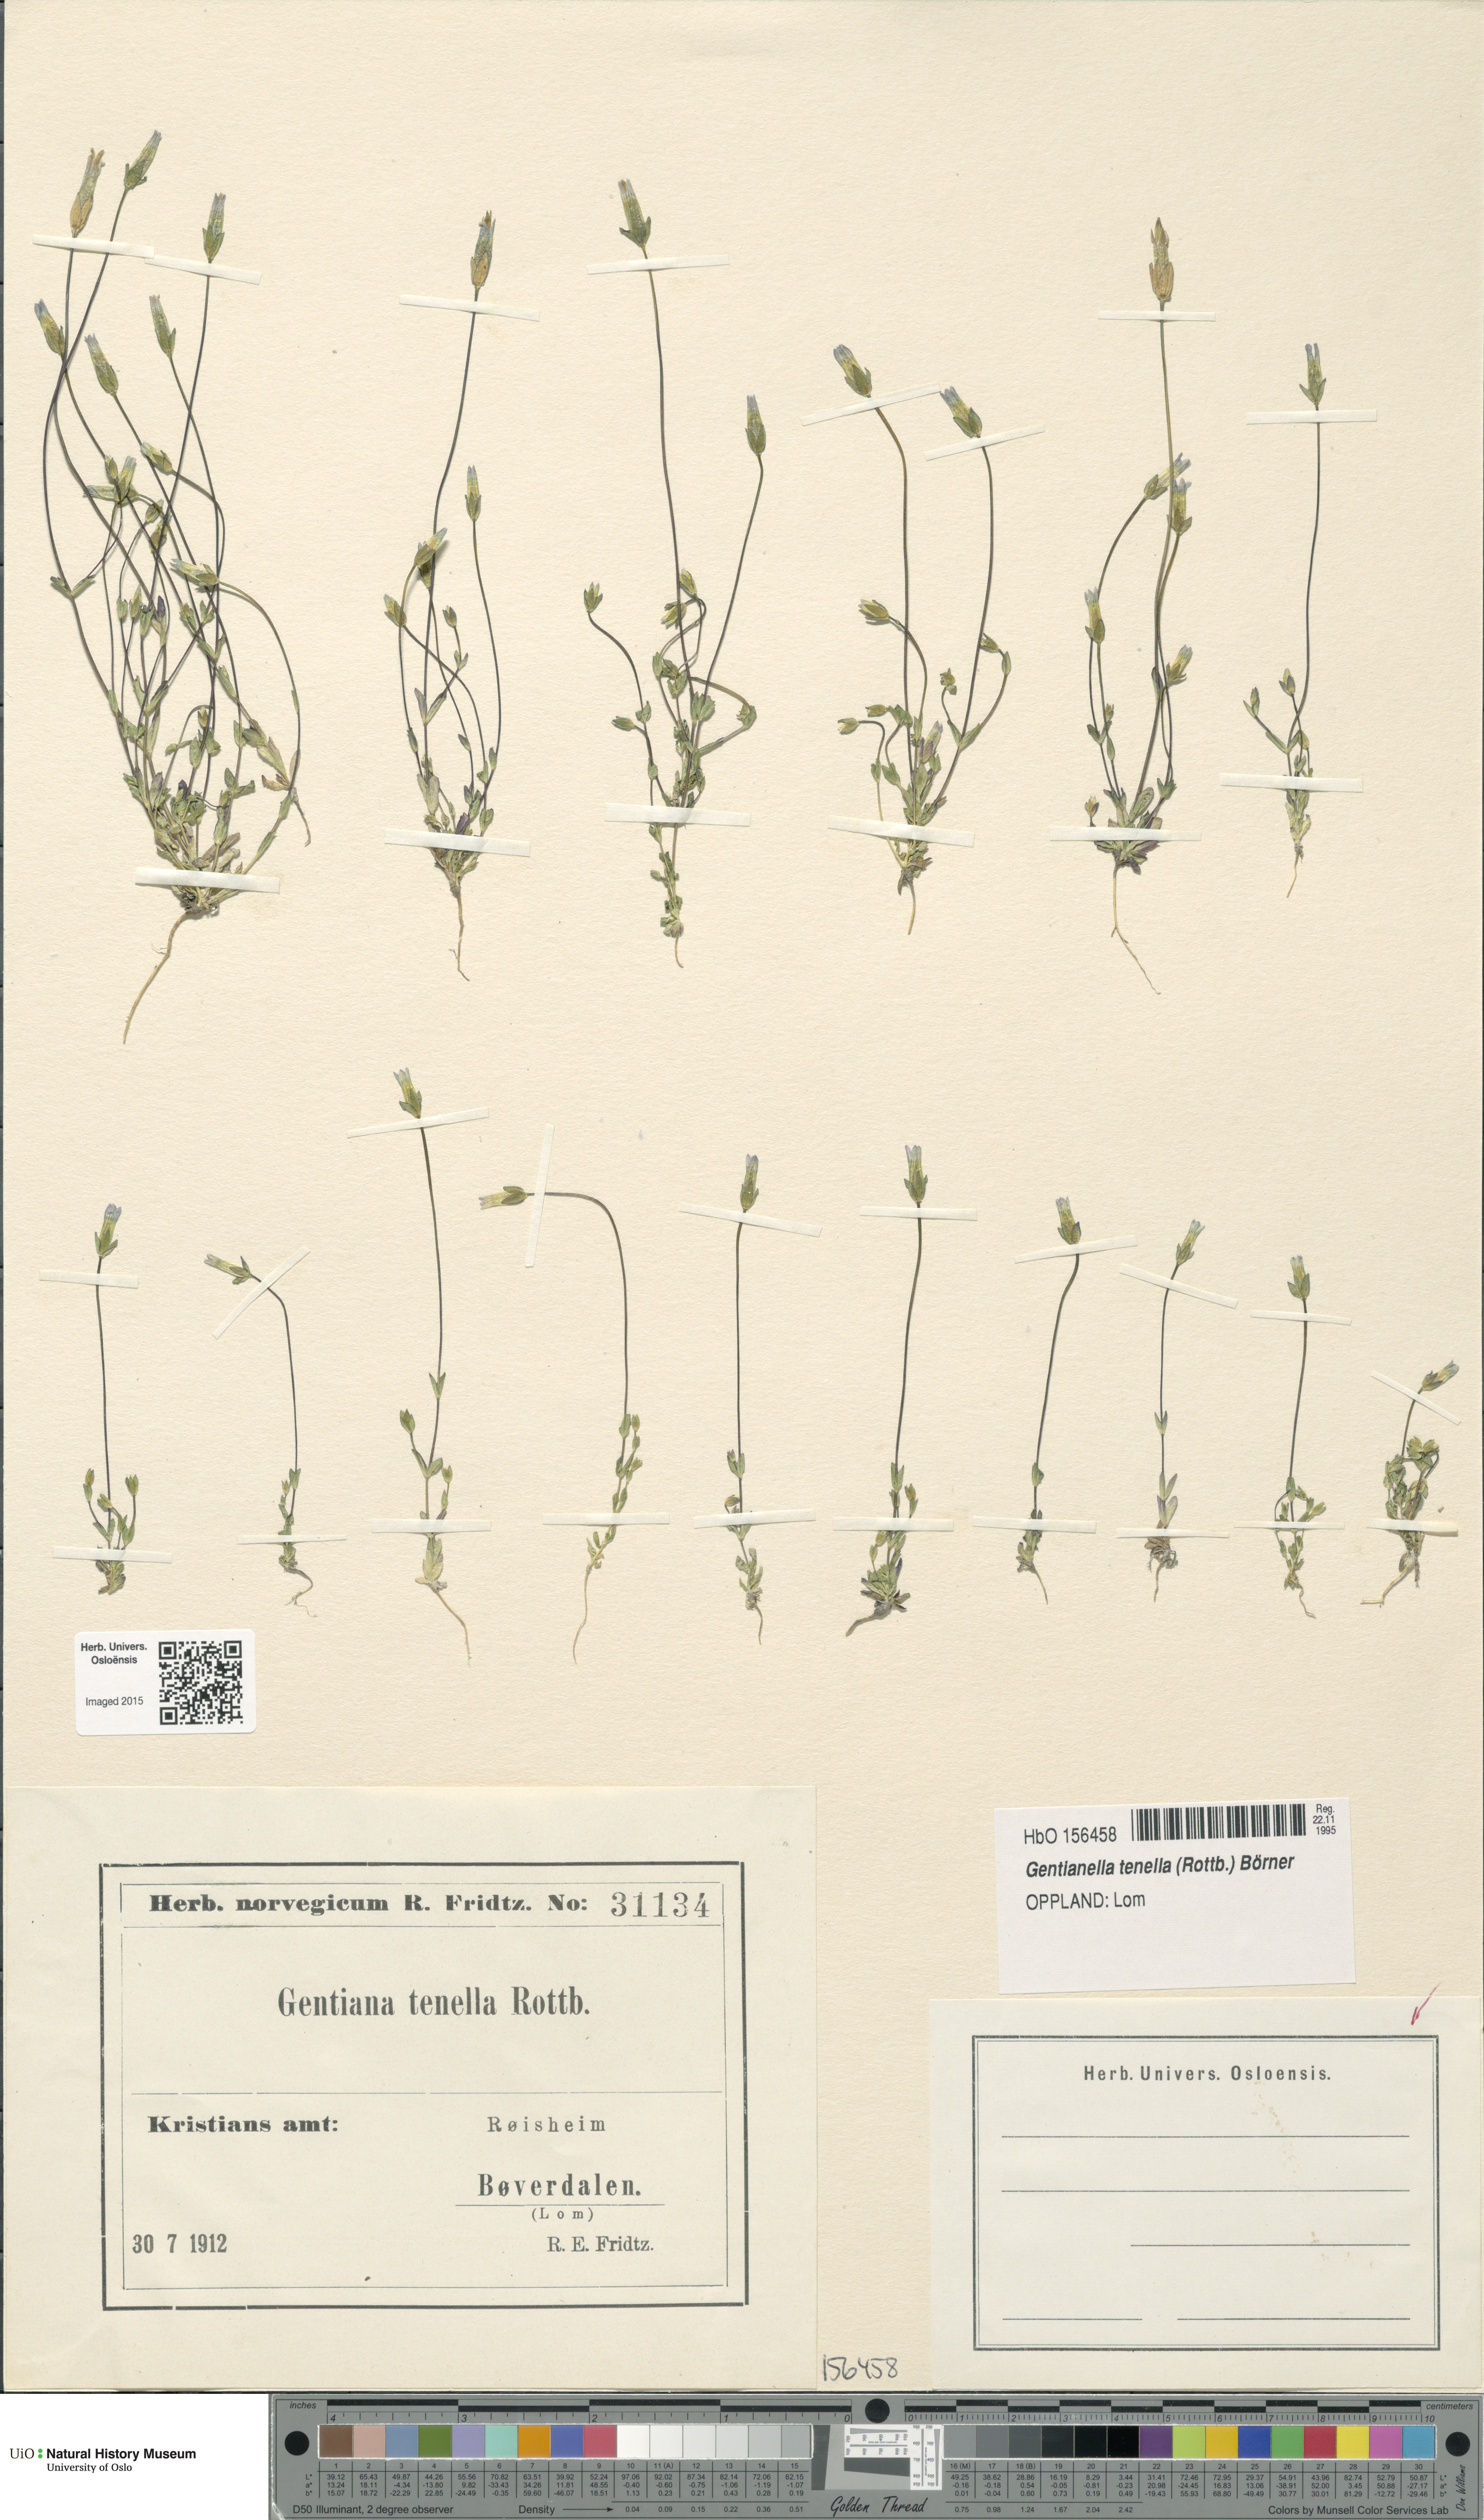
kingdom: Plantae
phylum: Tracheophyta
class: Magnoliopsida
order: Gentianales
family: Gentianaceae
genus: Comastoma
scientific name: Comastoma tenellum
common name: Dane's dwarf gentian
